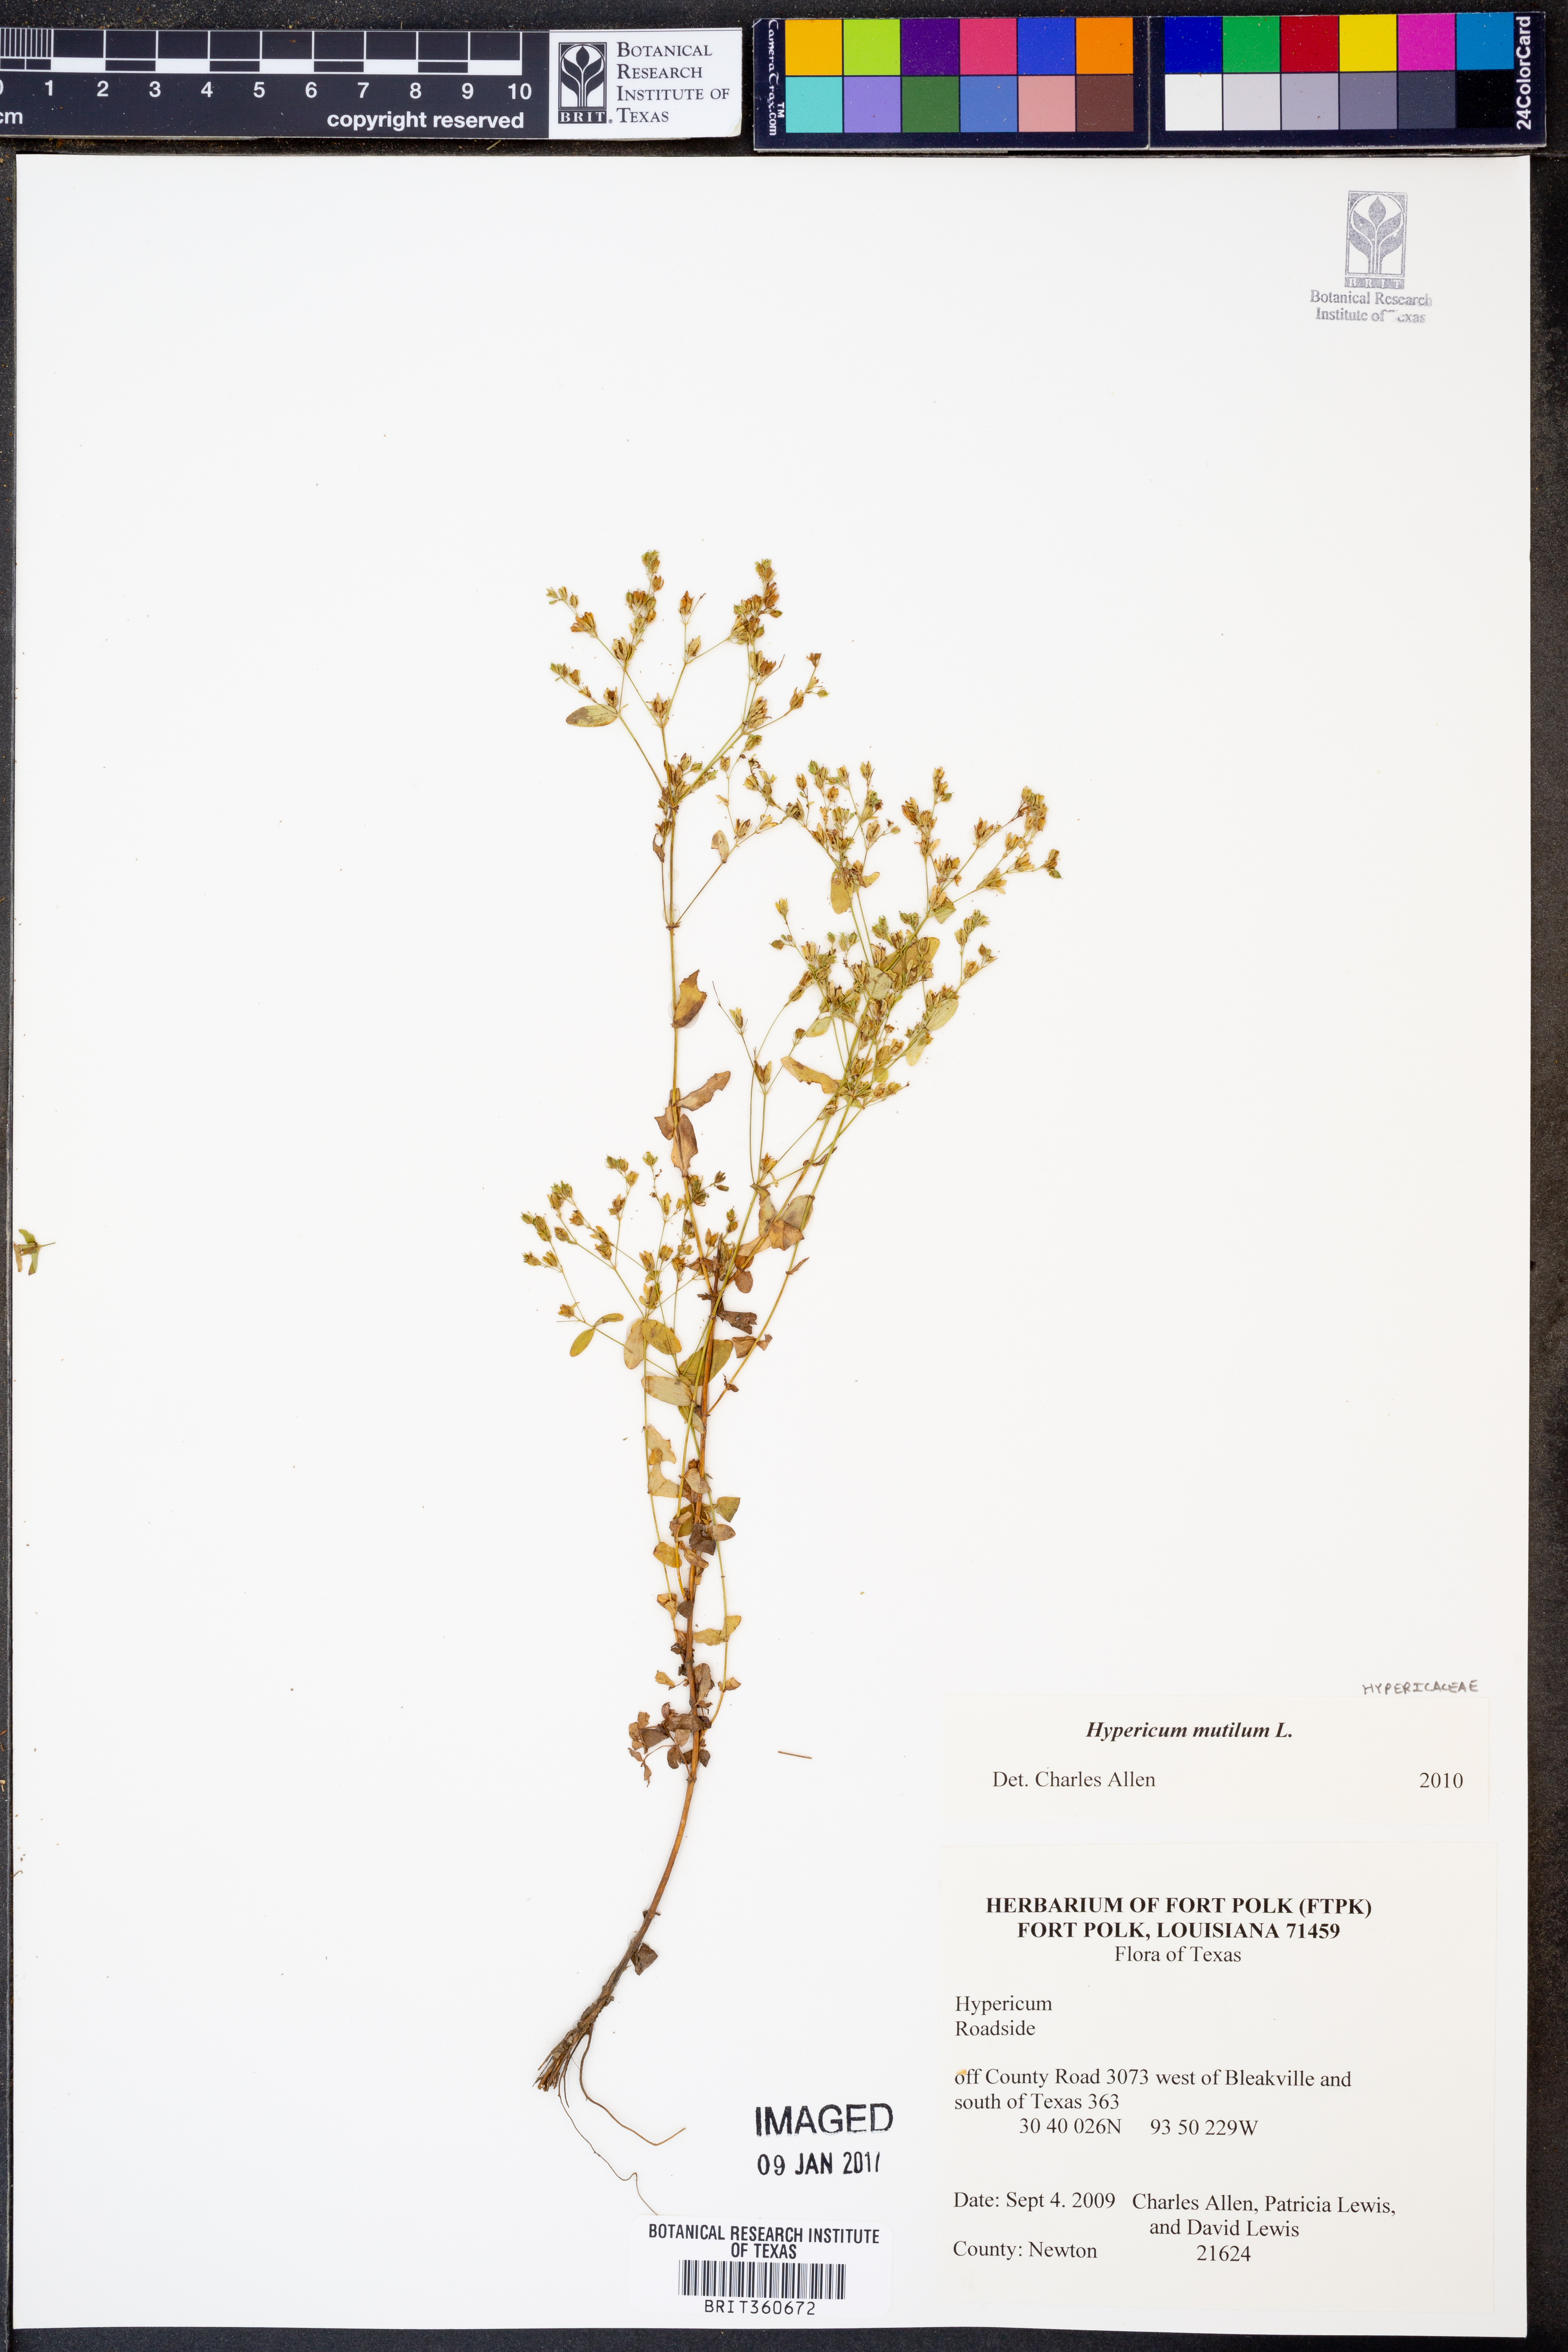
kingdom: Plantae
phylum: Tracheophyta
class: Magnoliopsida
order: Malpighiales
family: Hypericaceae
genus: Hypericum
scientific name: Hypericum mutilum
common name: Dwarf st. john's-wort
